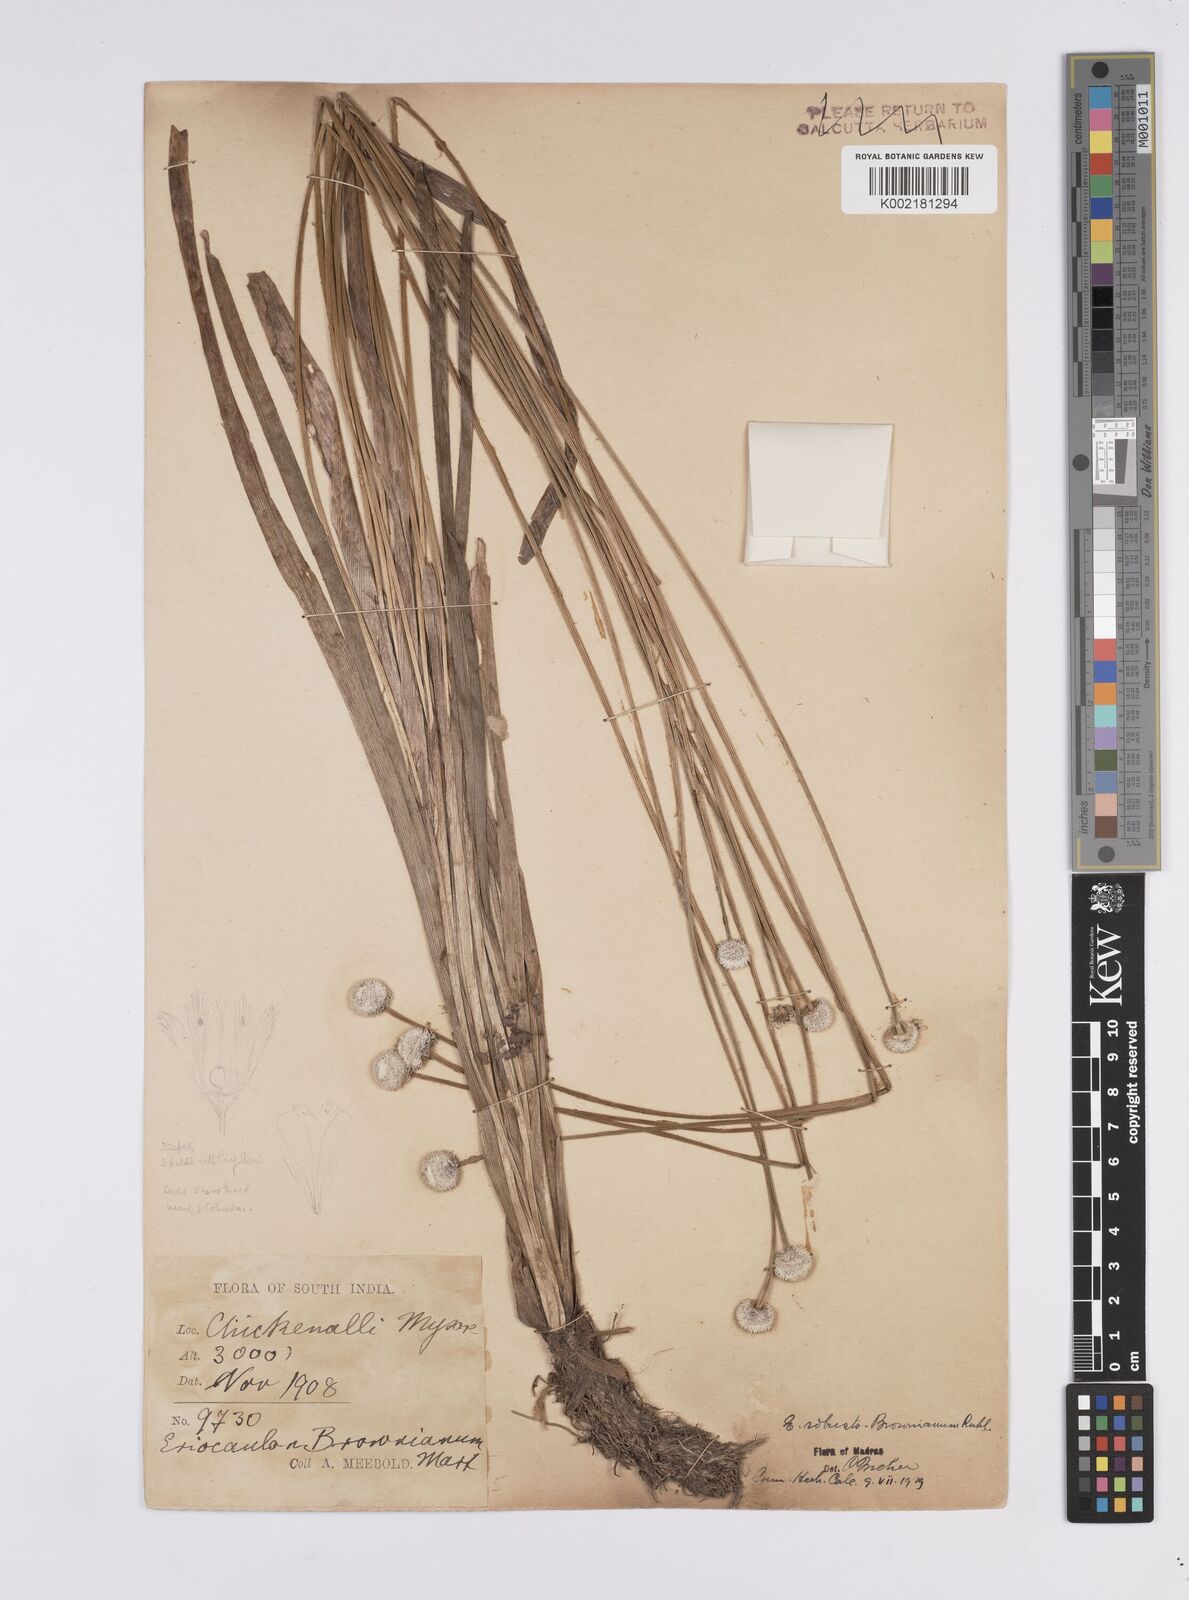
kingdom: Plantae
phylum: Tracheophyta
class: Liliopsida
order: Poales
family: Eriocaulaceae
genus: Eriocaulon
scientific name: Eriocaulon robustobrownianum
